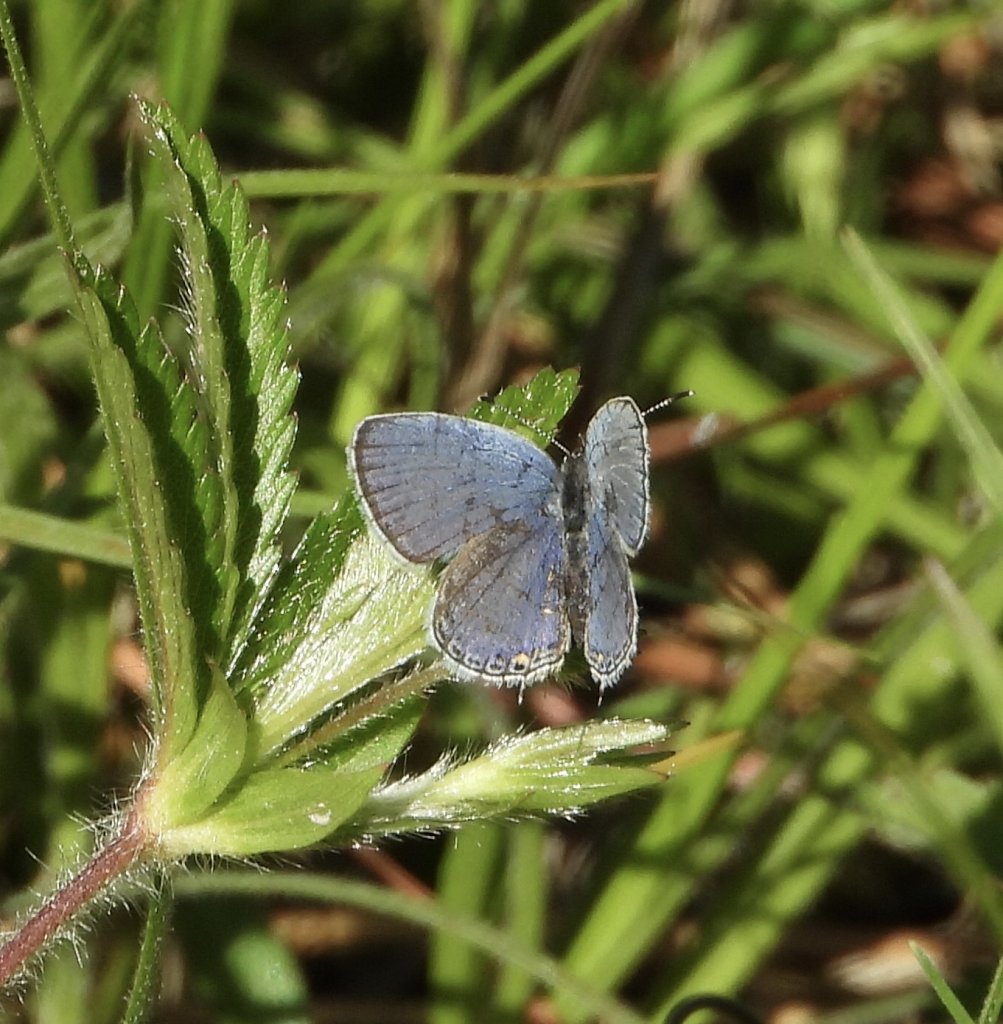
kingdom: Animalia
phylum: Arthropoda
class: Insecta
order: Lepidoptera
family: Lycaenidae
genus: Elkalyce
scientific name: Elkalyce comyntas
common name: Eastern Tailed-Blue
